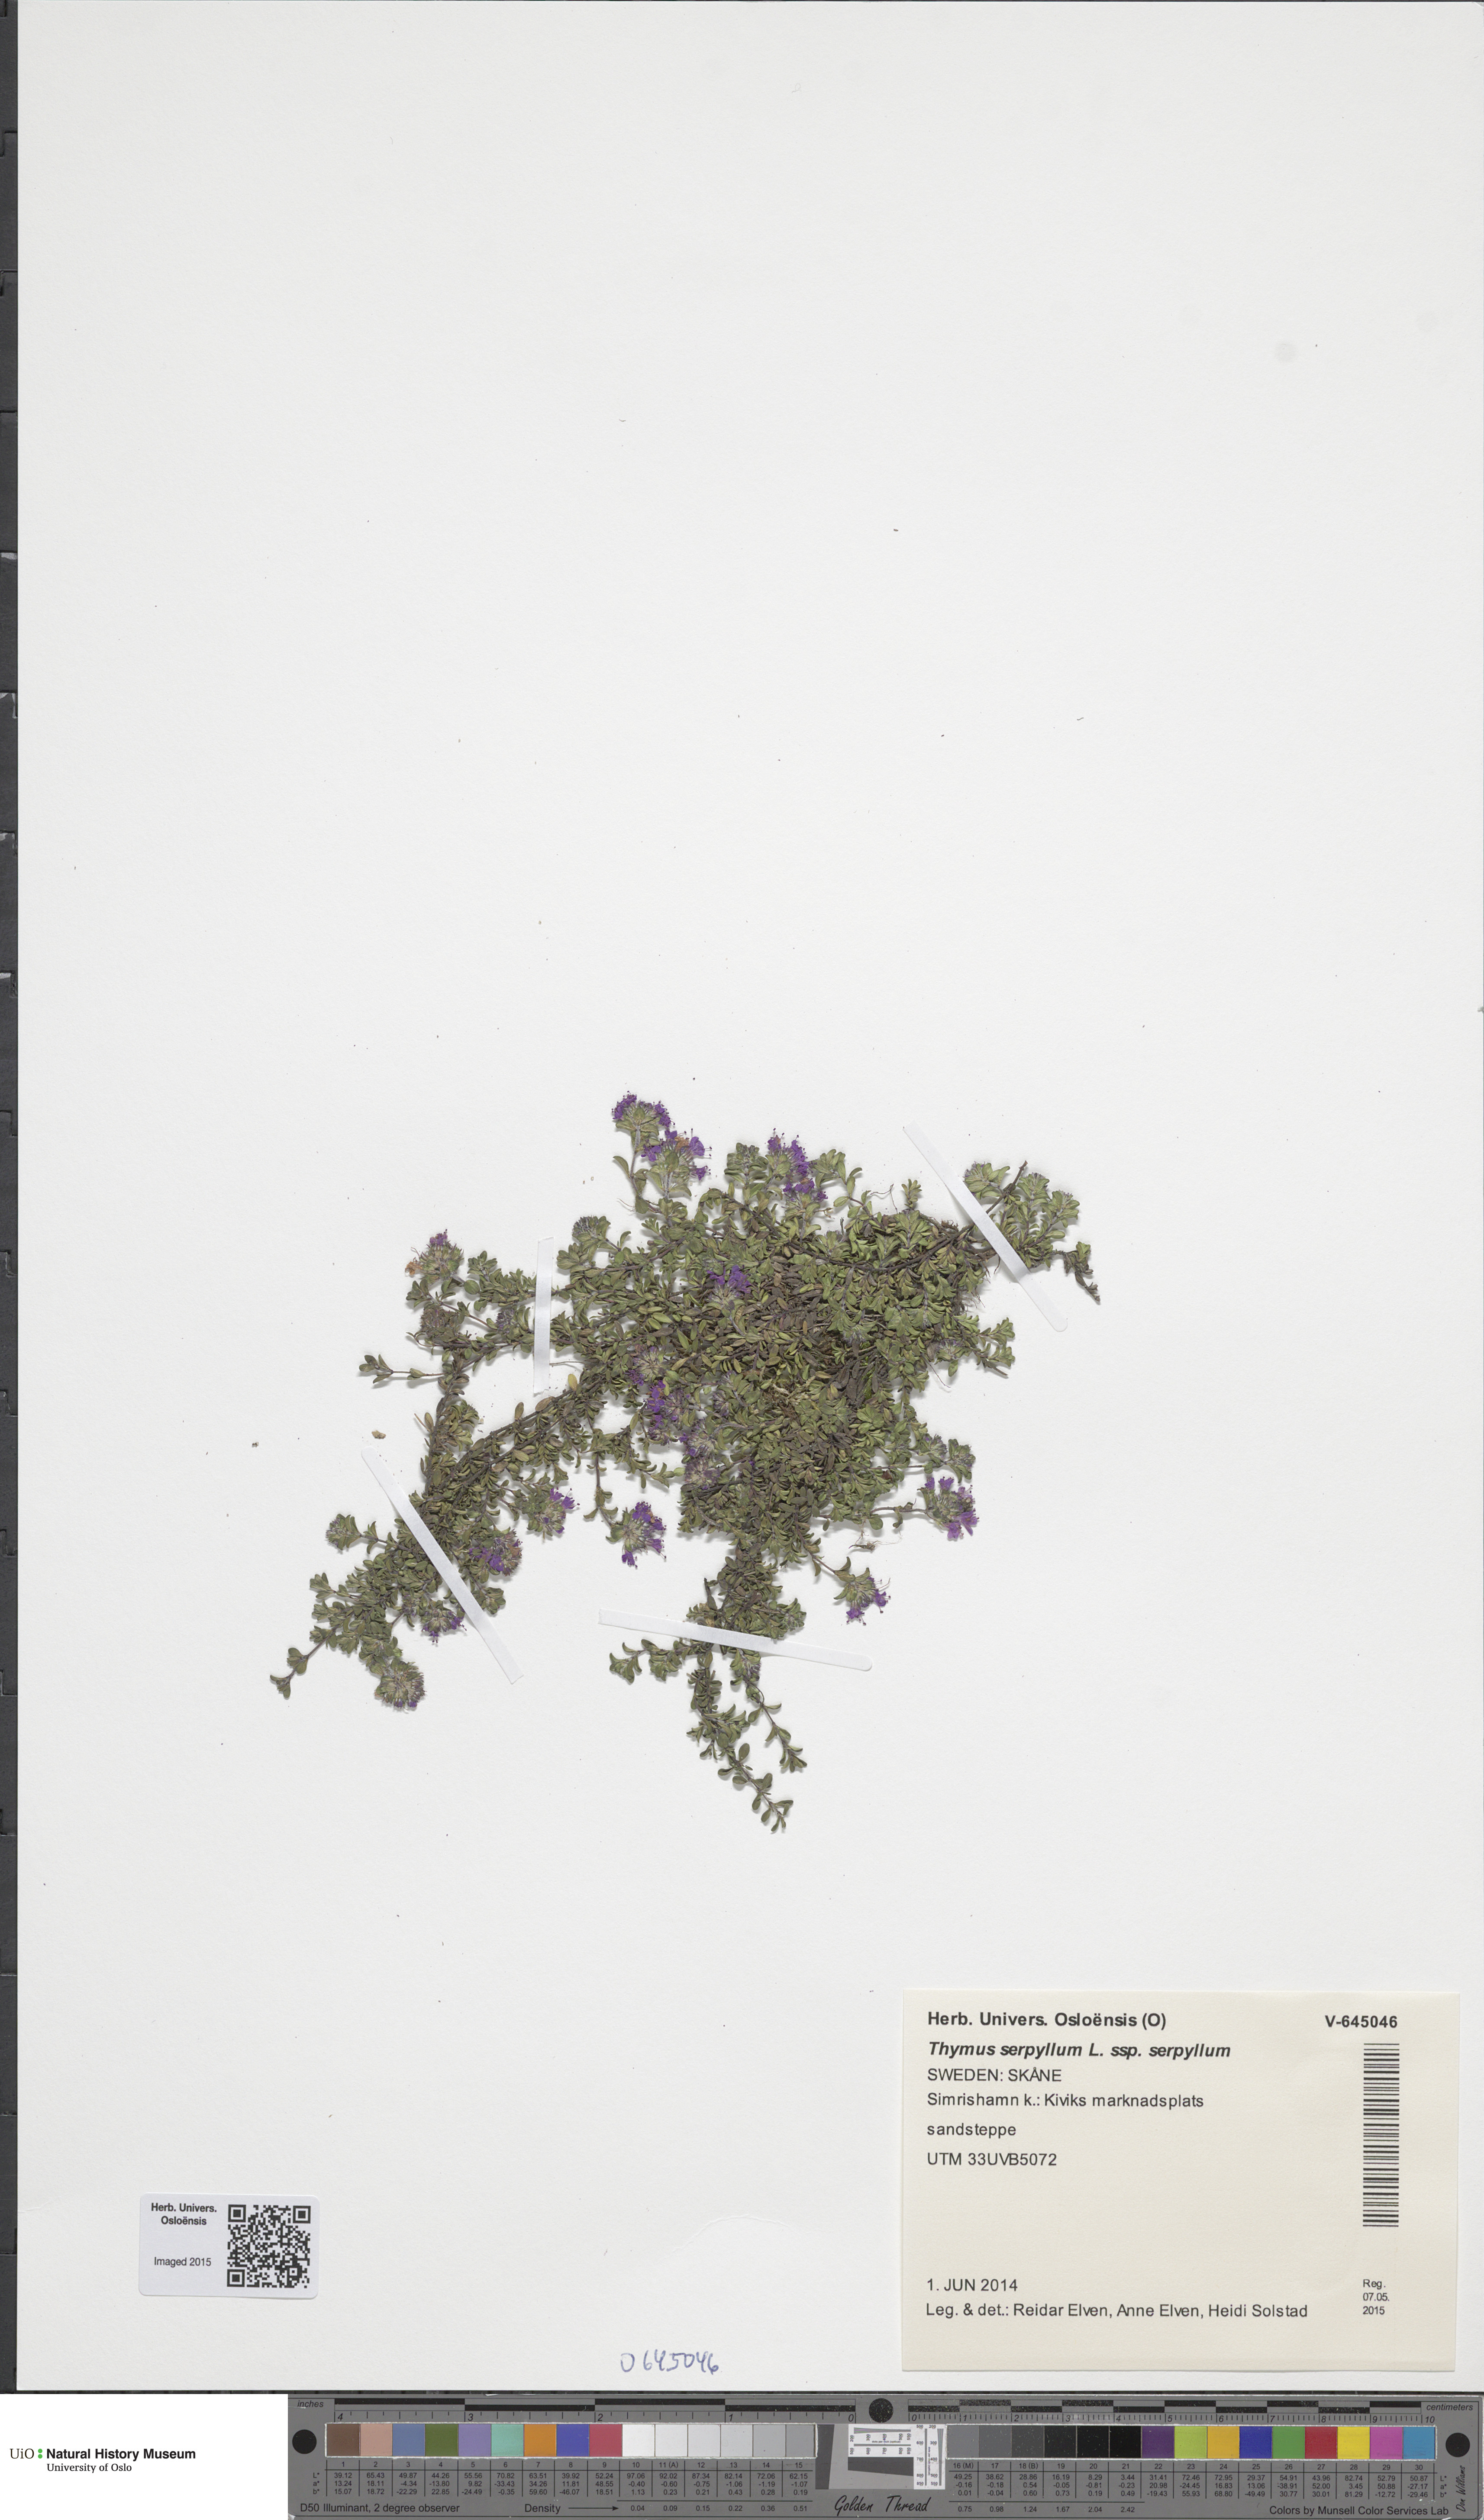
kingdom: Plantae
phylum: Tracheophyta
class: Magnoliopsida
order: Lamiales
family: Lamiaceae
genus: Thymus
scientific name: Thymus serpyllum
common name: Breckland thyme
